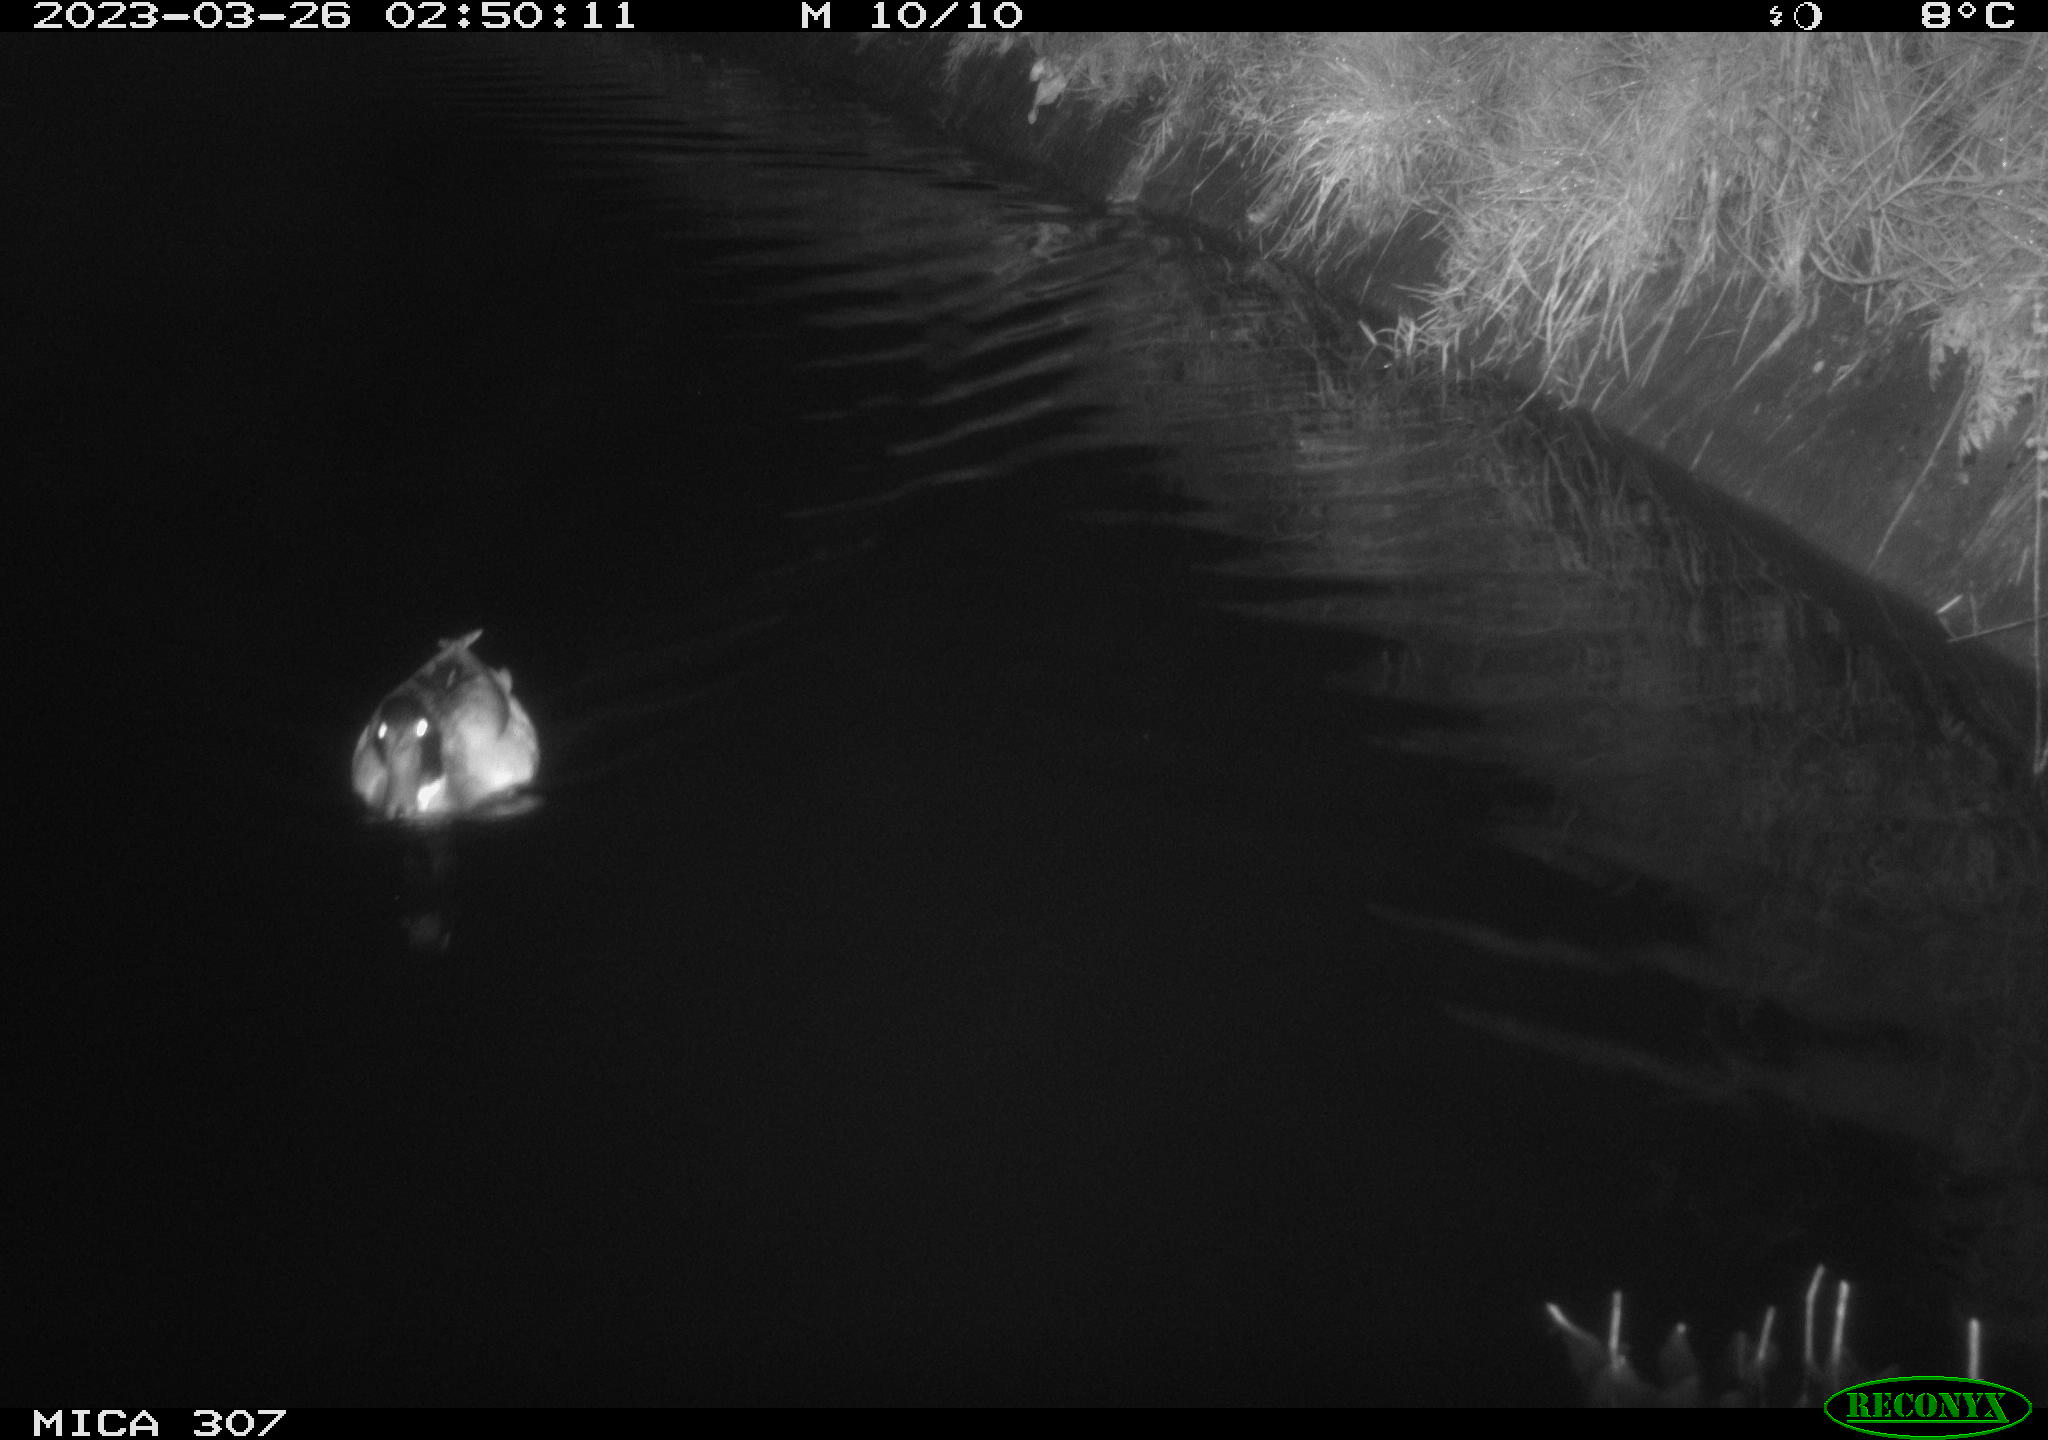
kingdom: Animalia
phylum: Chordata
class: Aves
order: Anseriformes
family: Anatidae
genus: Anas
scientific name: Anas
